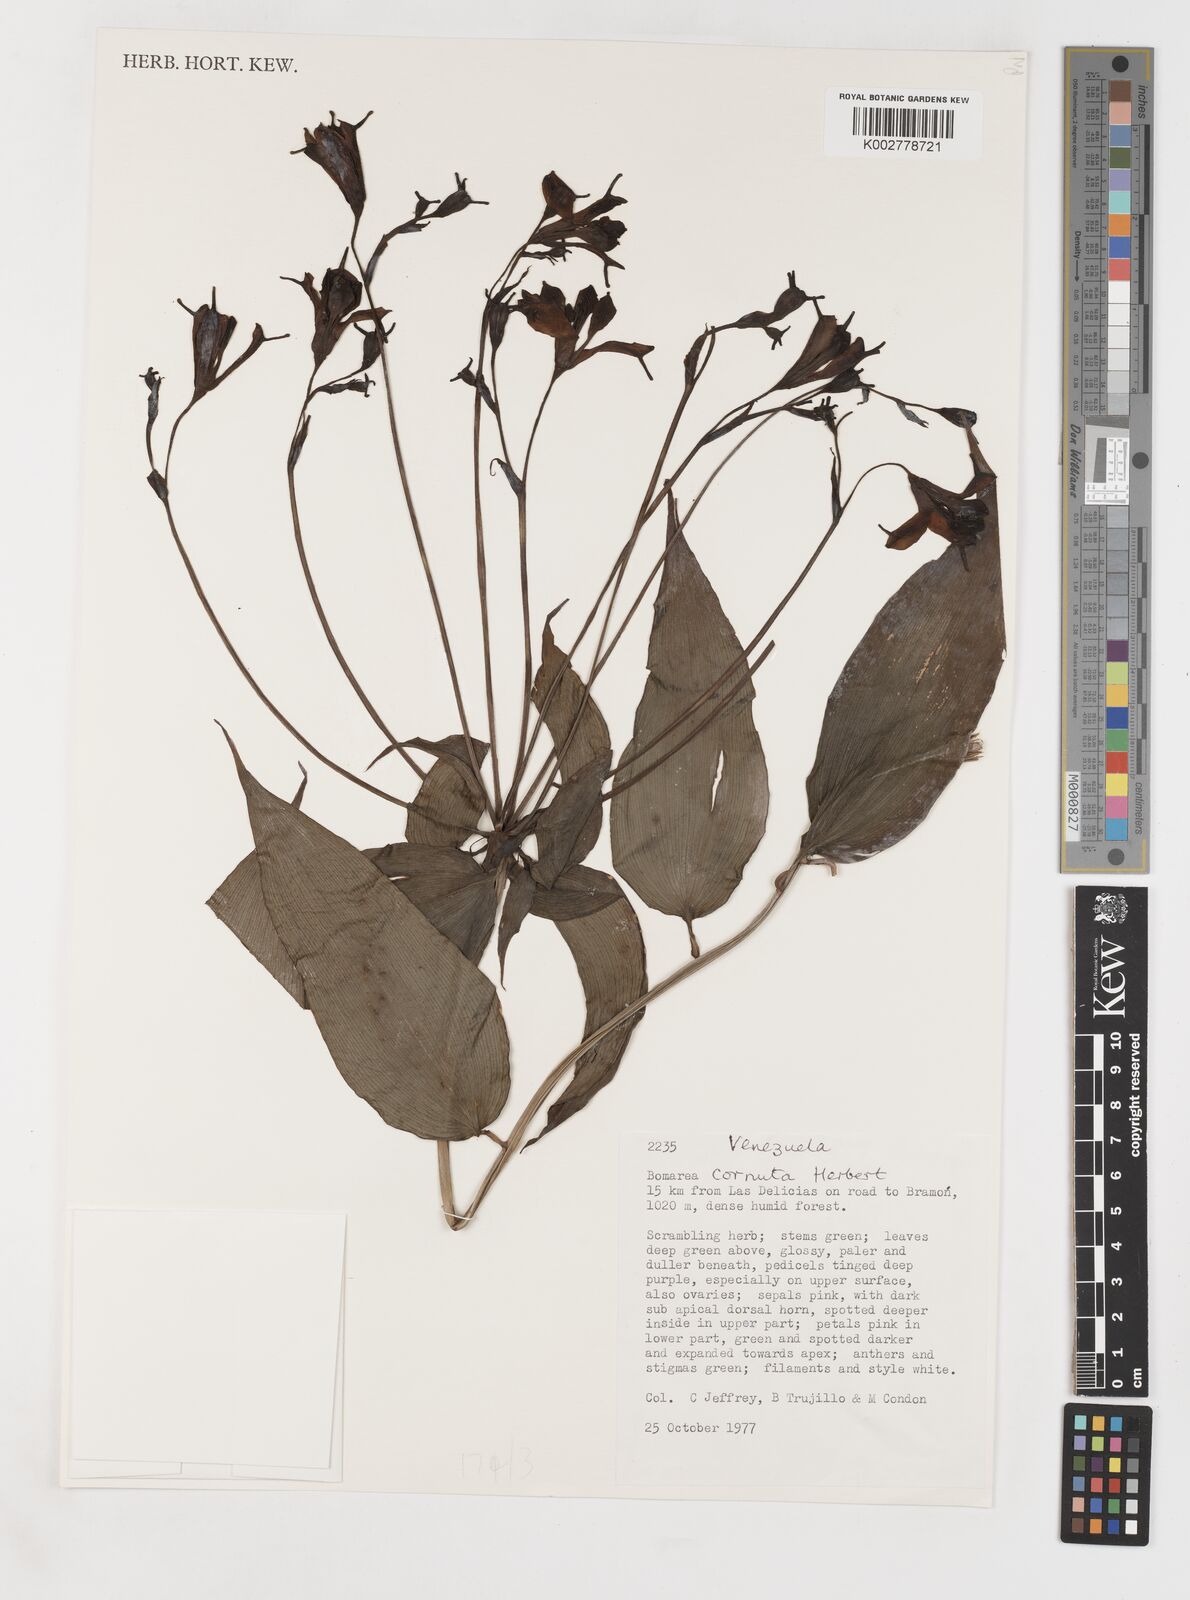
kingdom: Plantae
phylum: Tracheophyta
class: Liliopsida
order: Liliales
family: Alstroemeriaceae
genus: Bomarea
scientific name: Bomarea edulis
